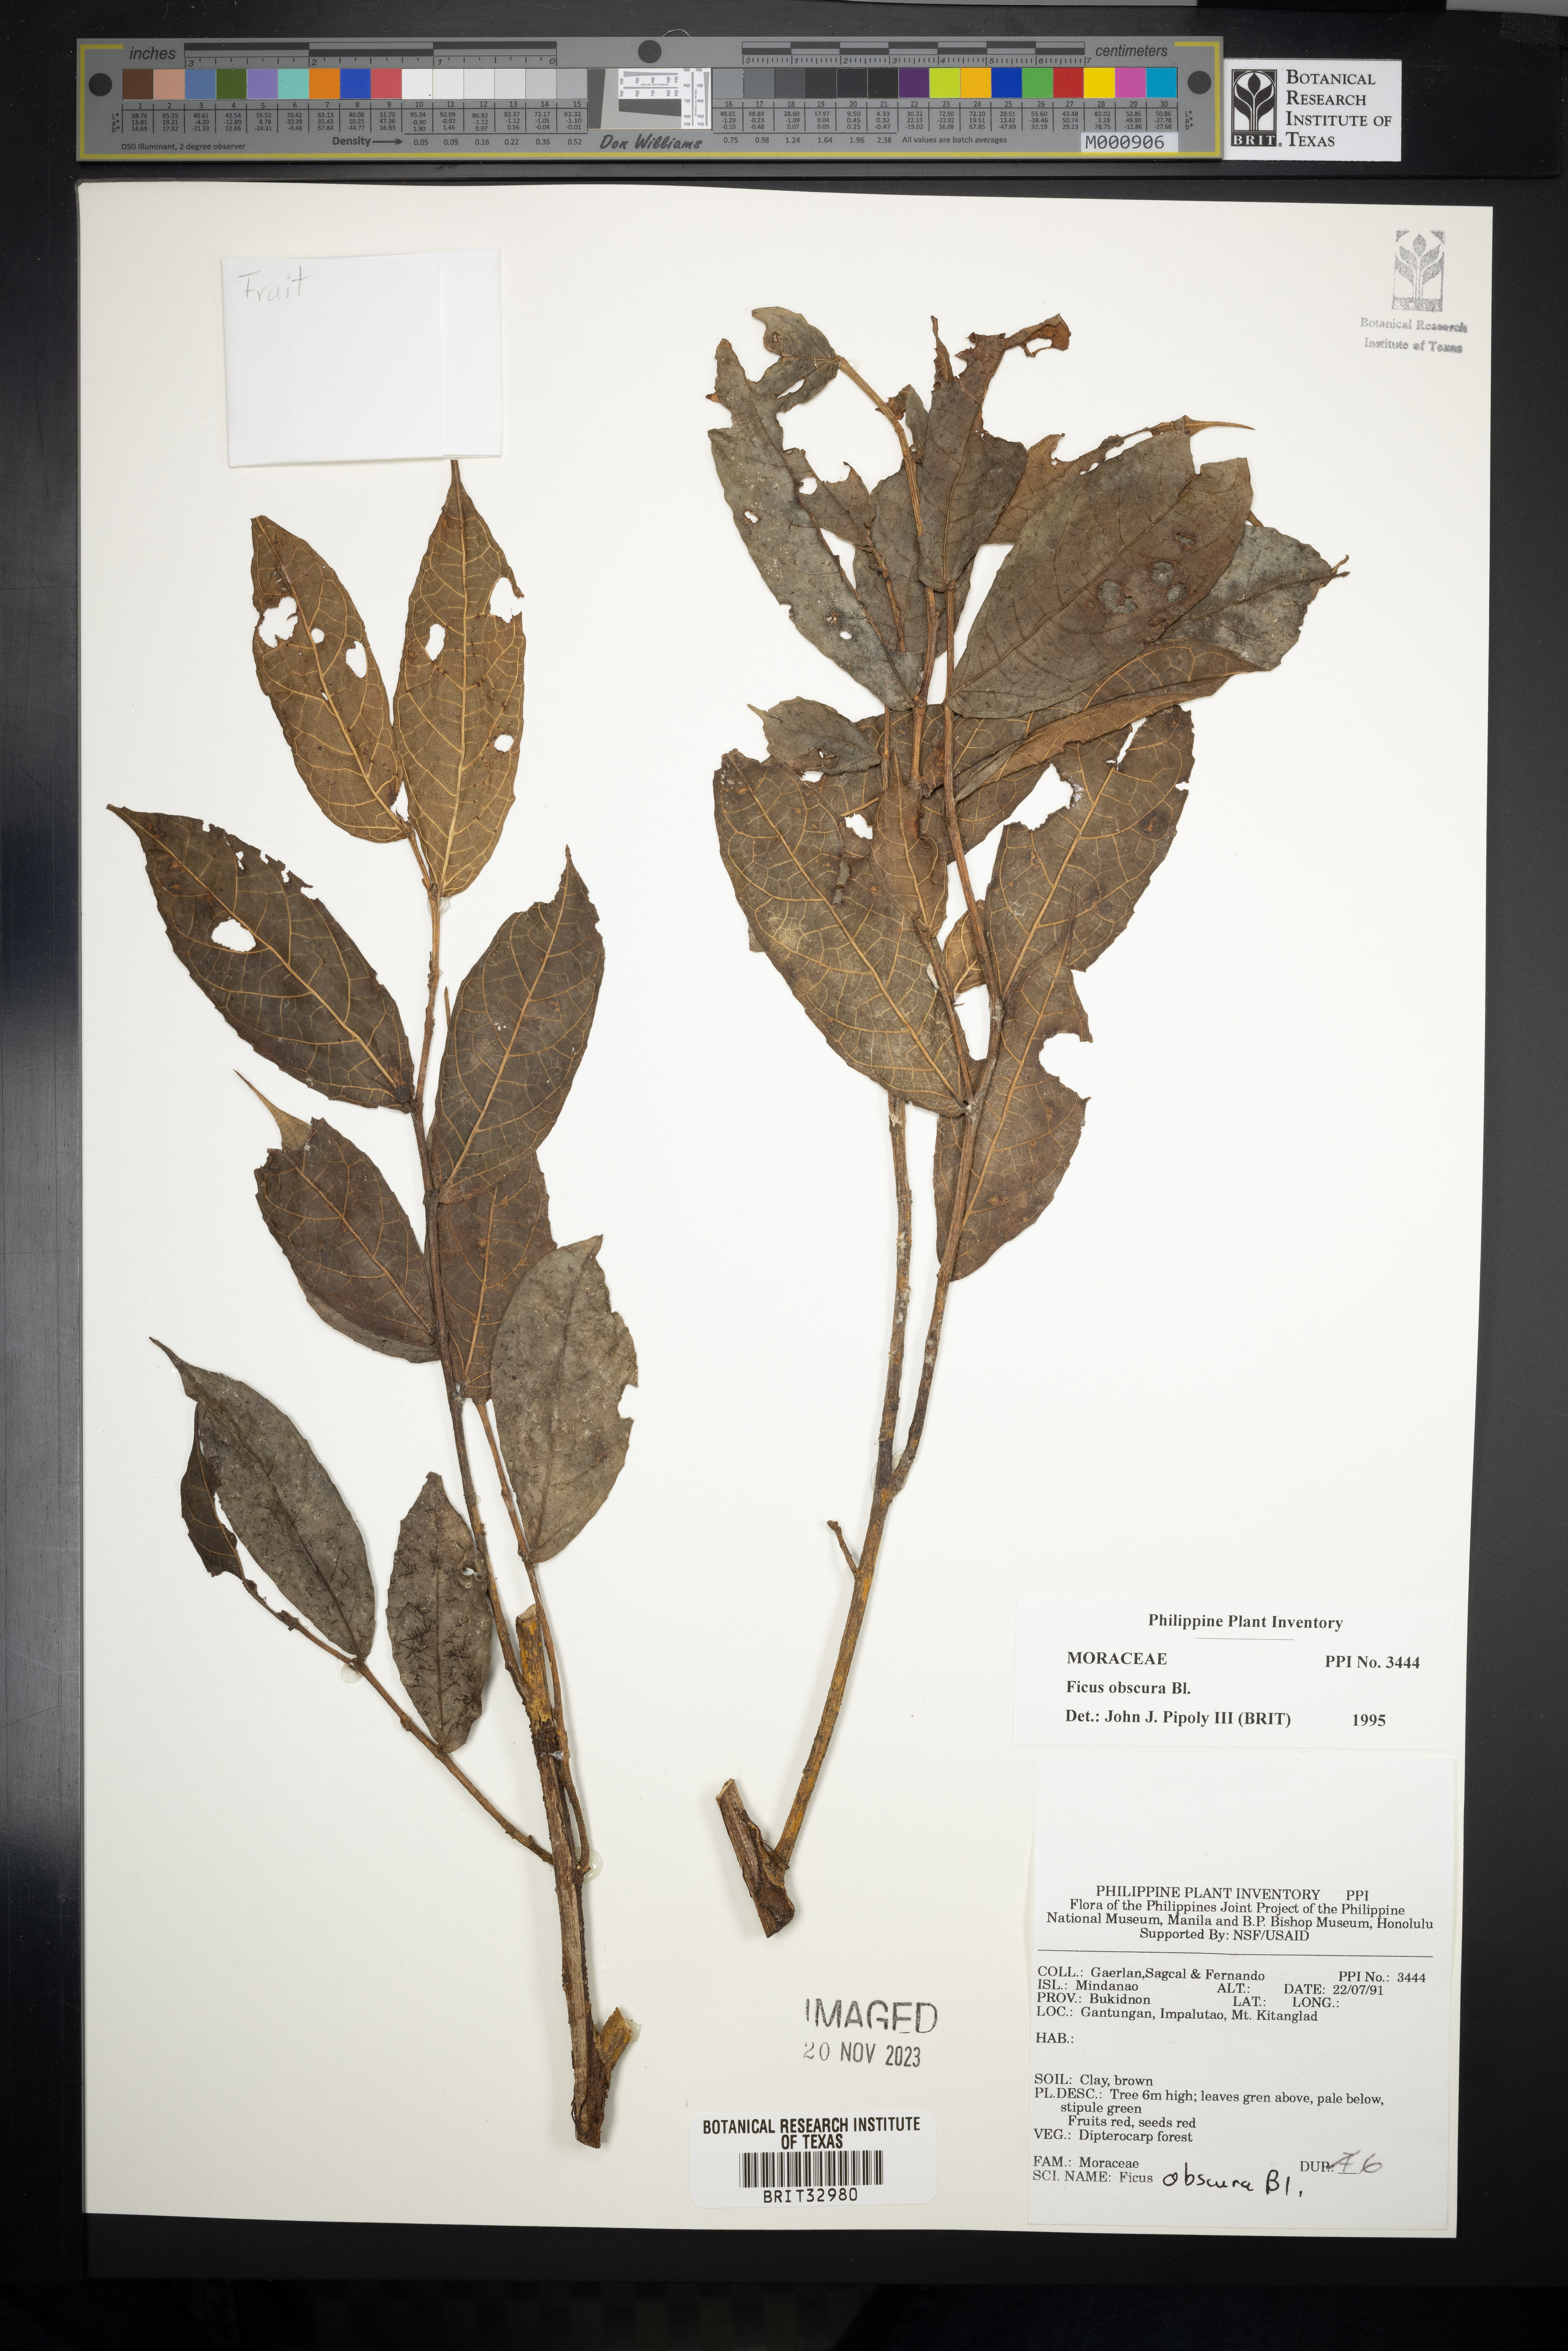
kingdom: Plantae
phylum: Tracheophyta
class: Magnoliopsida
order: Rosales
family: Moraceae
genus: Ficus
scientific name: Ficus obscura
